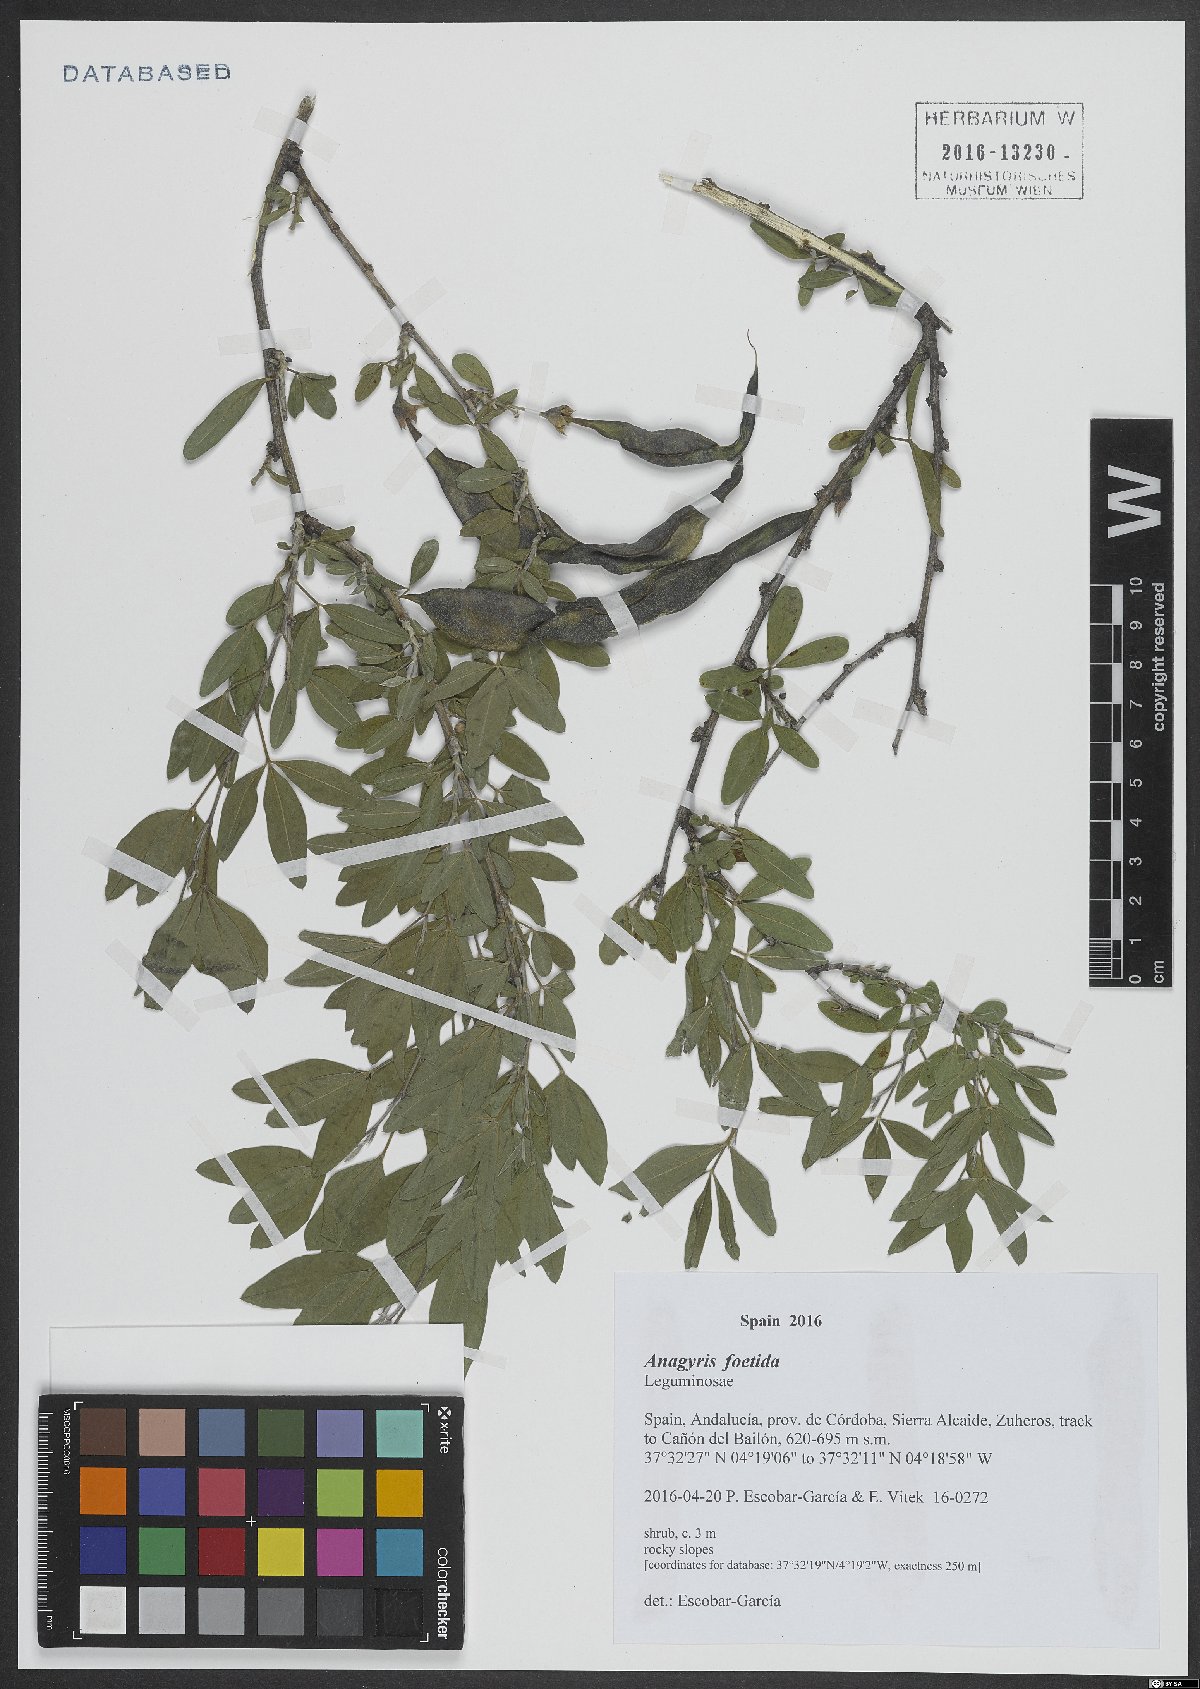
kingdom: Plantae
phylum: Tracheophyta
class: Magnoliopsida
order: Fabales
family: Fabaceae
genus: Anagyris
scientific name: Anagyris foetida
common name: Stinking bean trefoil
